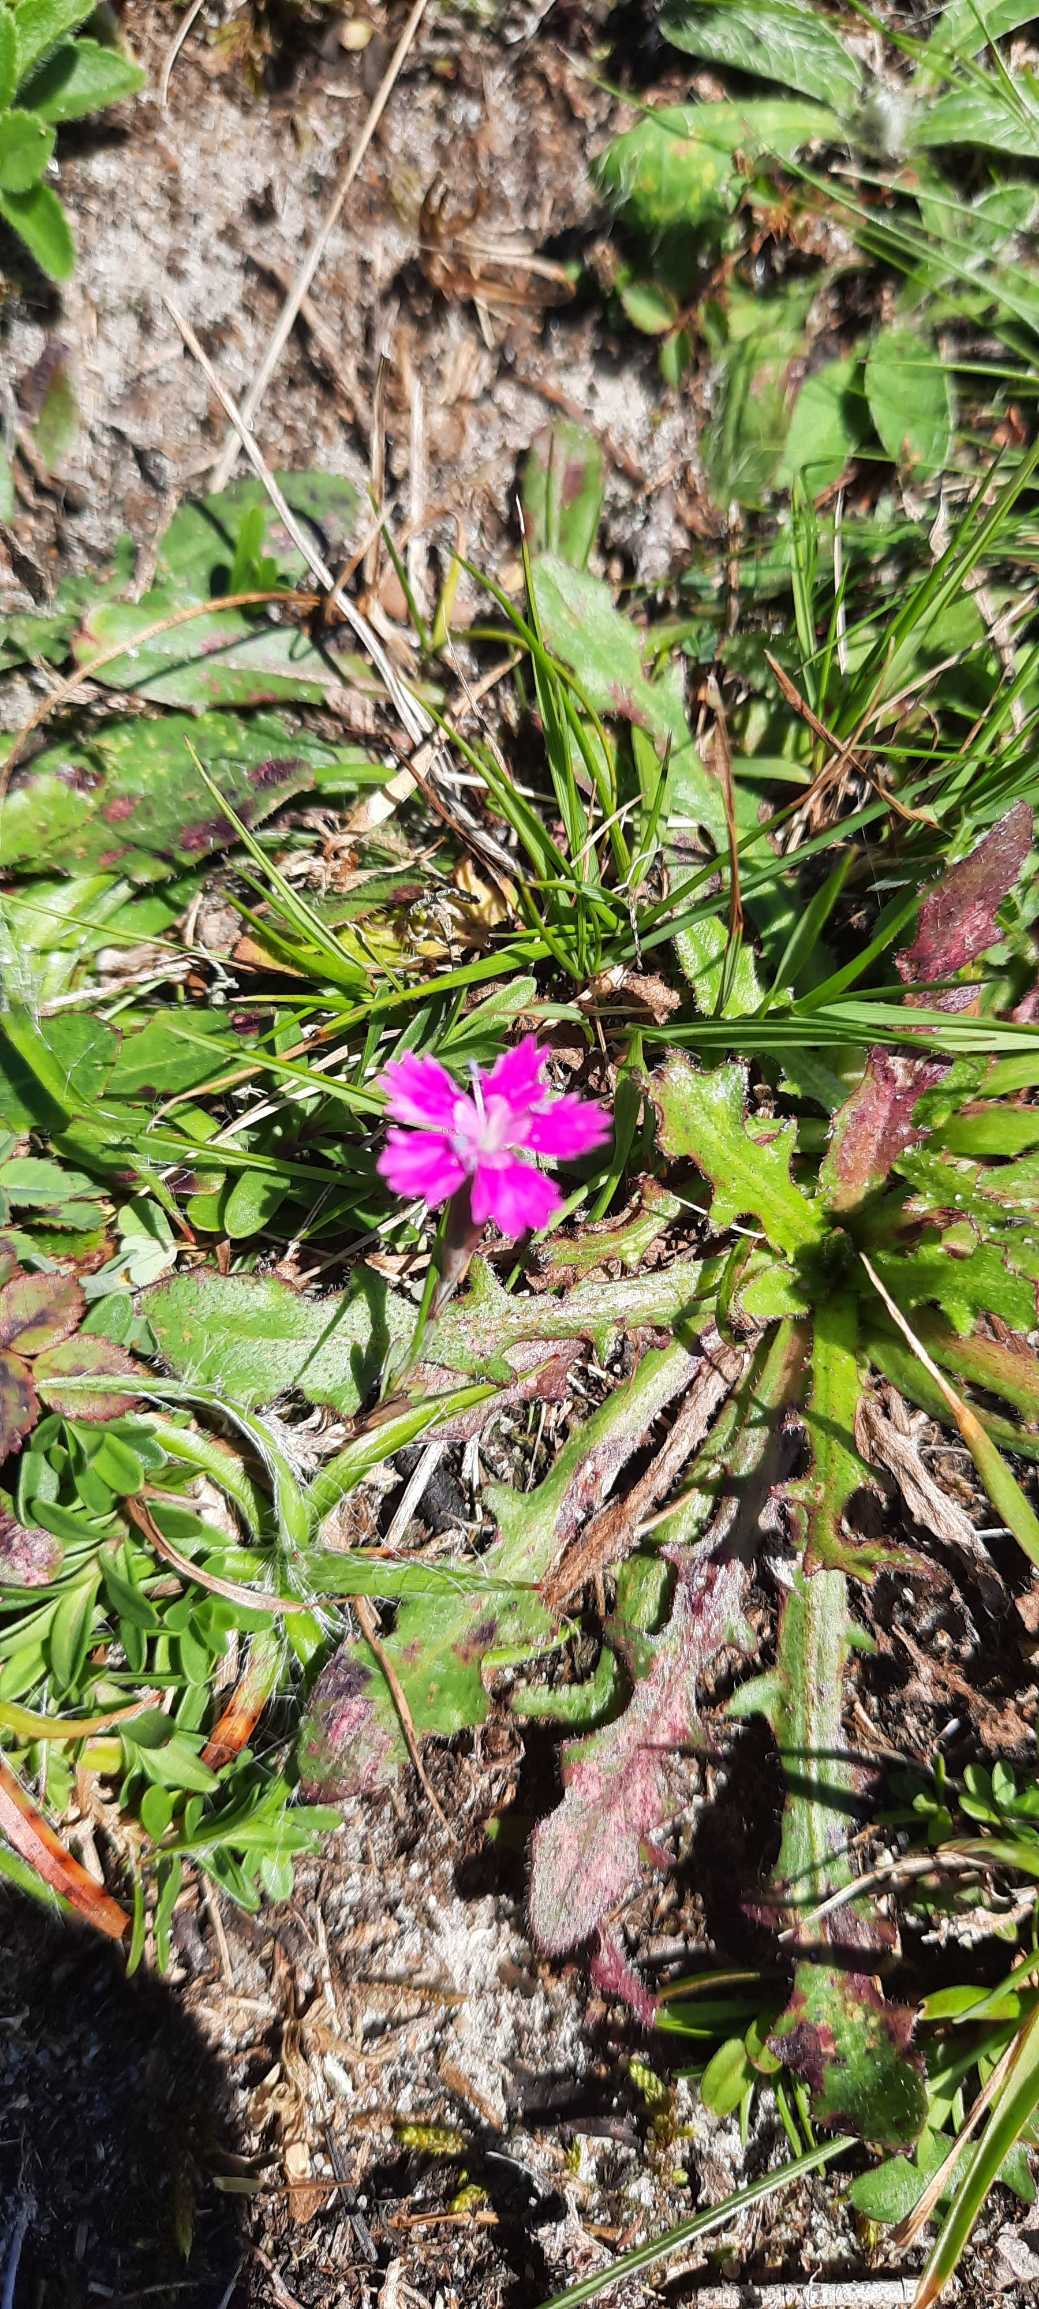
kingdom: Plantae
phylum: Tracheophyta
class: Magnoliopsida
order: Caryophyllales
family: Caryophyllaceae
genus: Dianthus
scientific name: Dianthus deltoides
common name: Bakke-nellike
